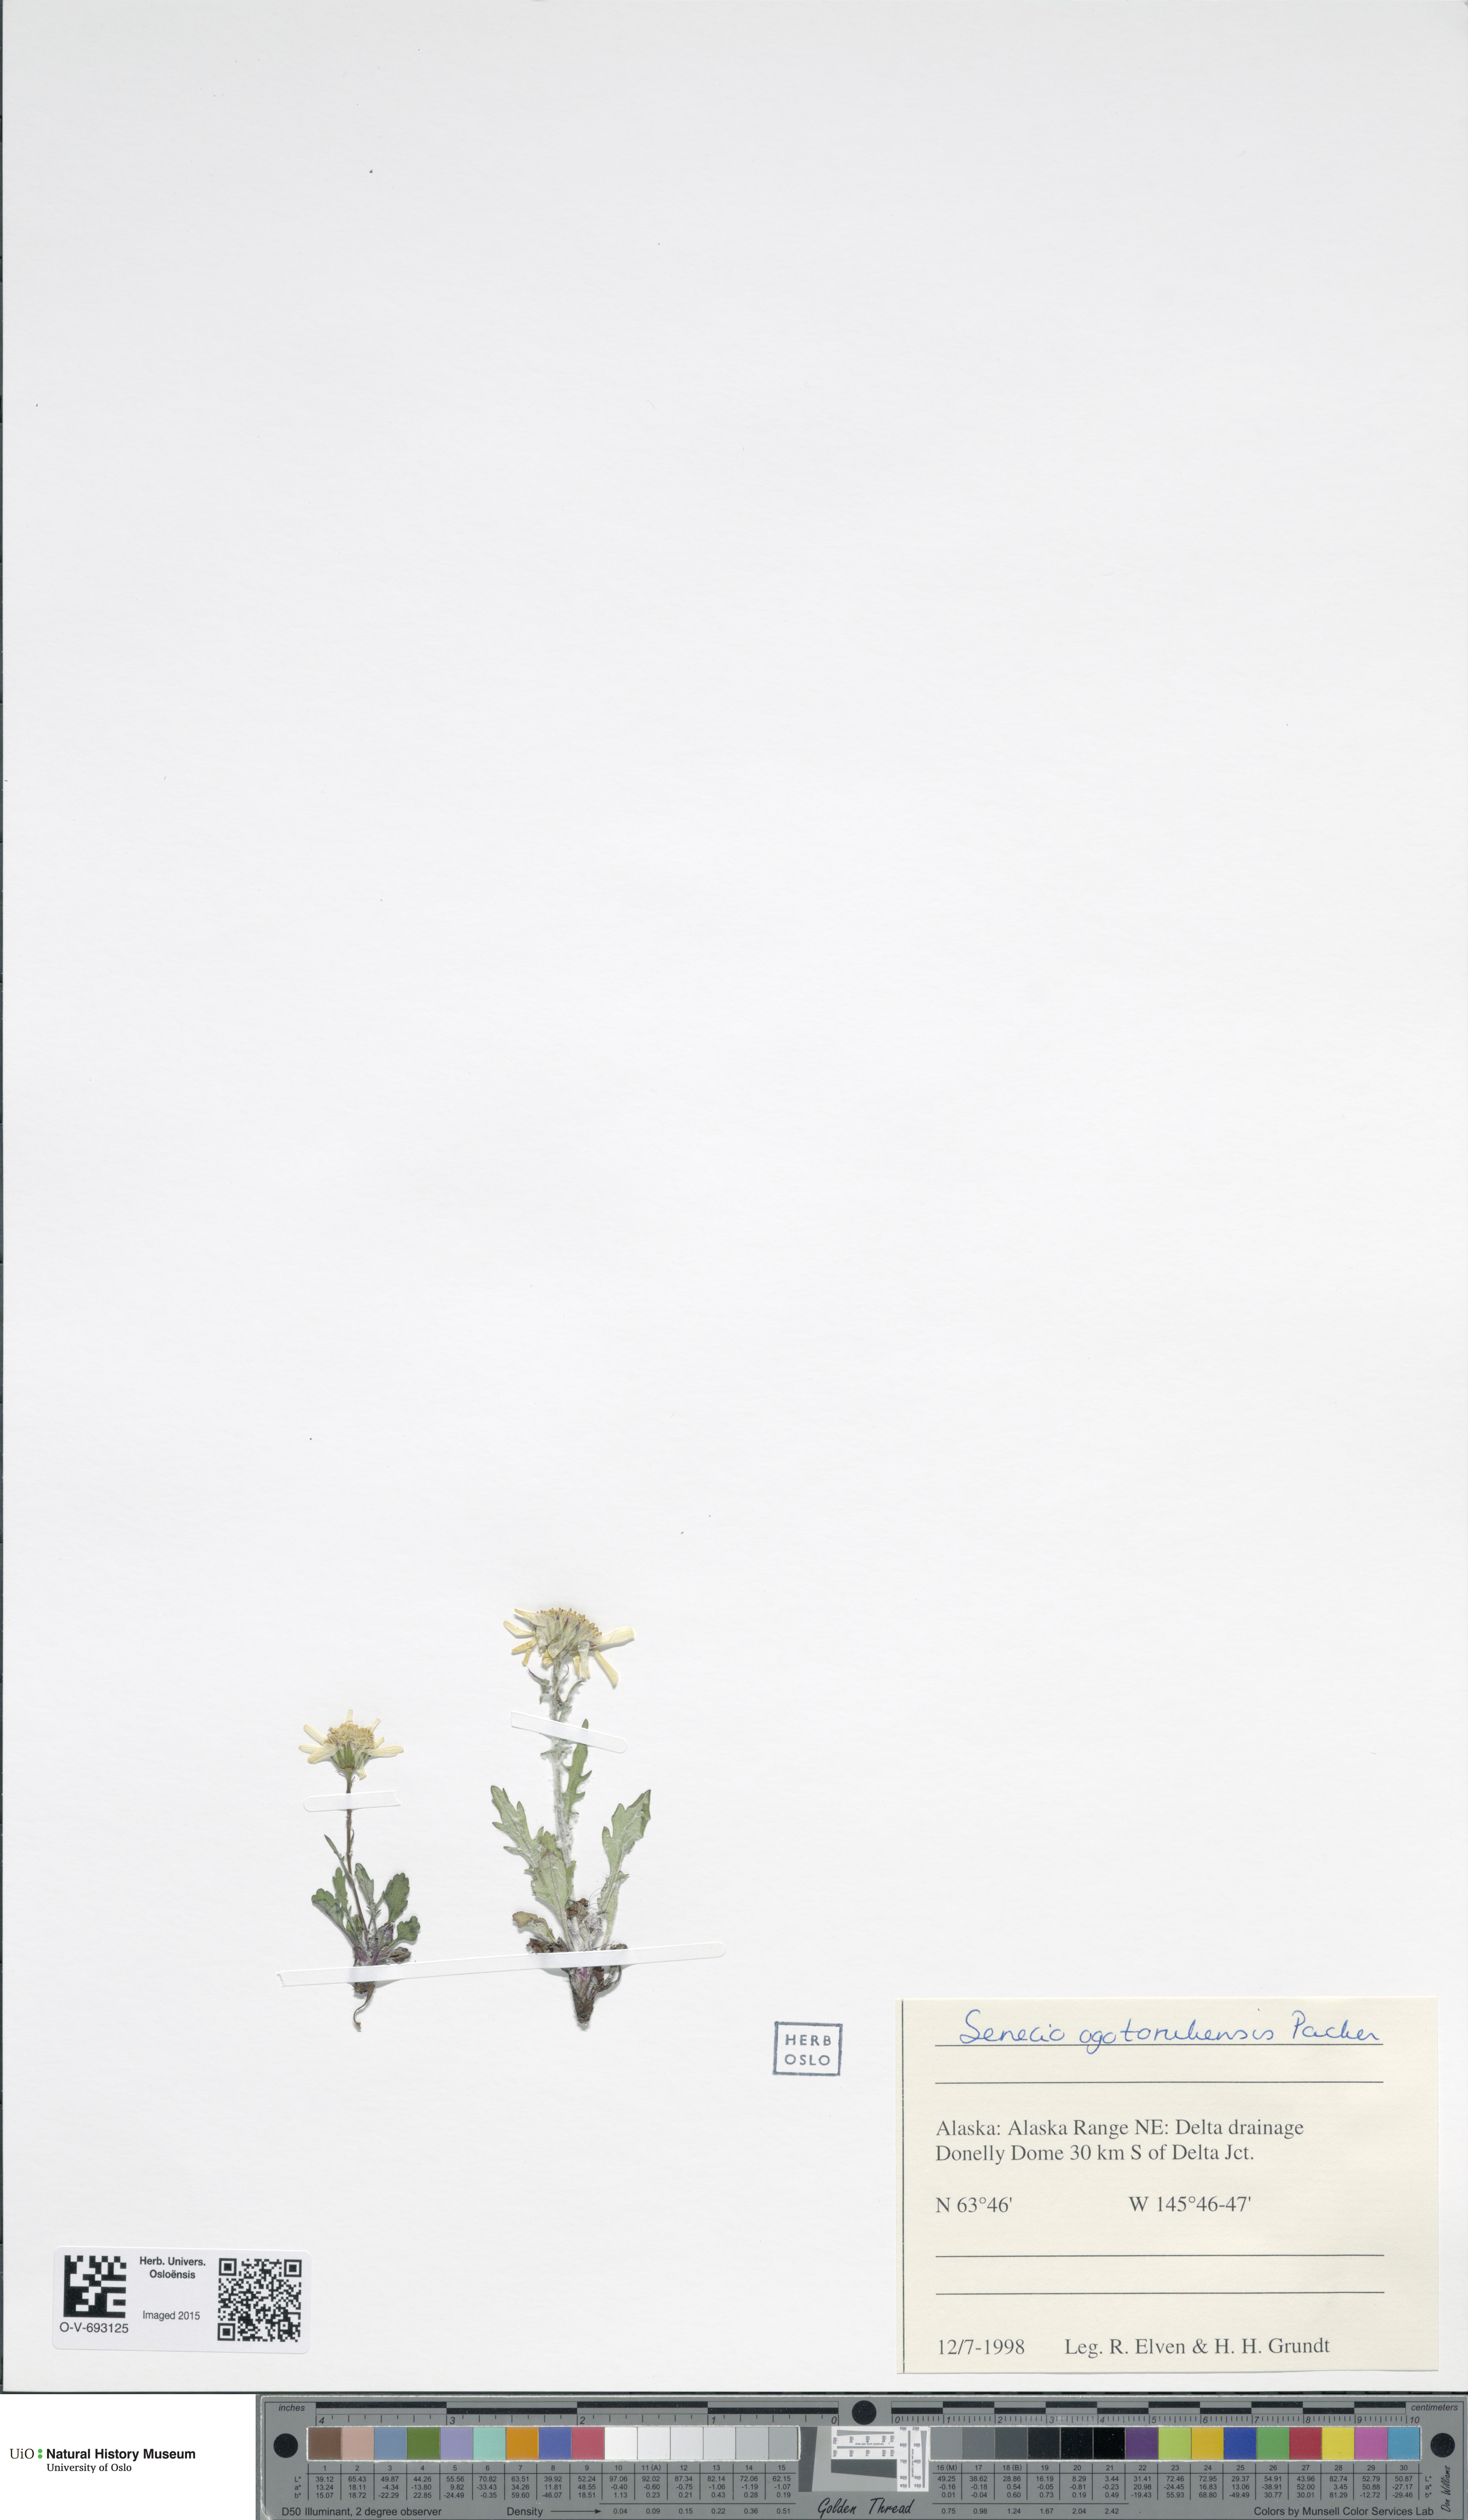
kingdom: Plantae
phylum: Tracheophyta
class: Magnoliopsida
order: Asterales
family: Asteraceae
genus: Packera
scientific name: Packera ogotorukensis
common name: Ogotoruk creek butterweed
